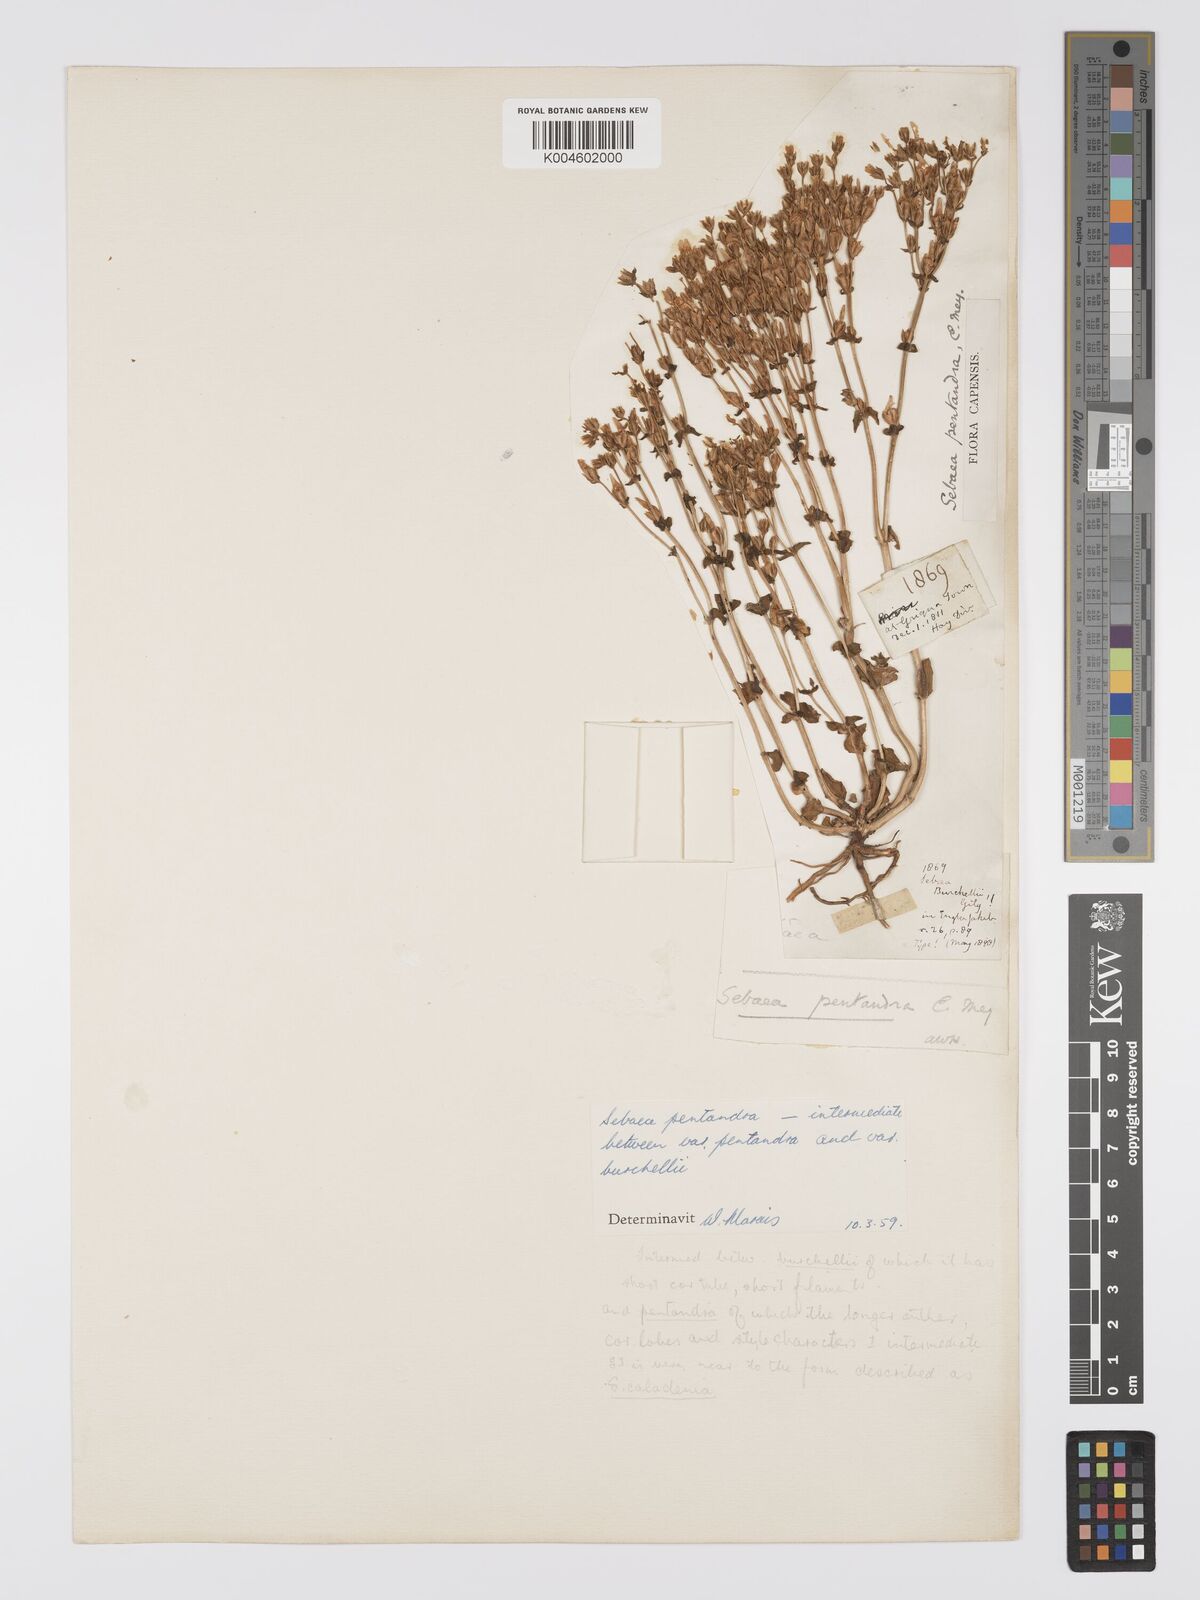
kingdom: Plantae
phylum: Tracheophyta
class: Magnoliopsida
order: Gentianales
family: Gentianaceae
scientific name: Gentianaceae
